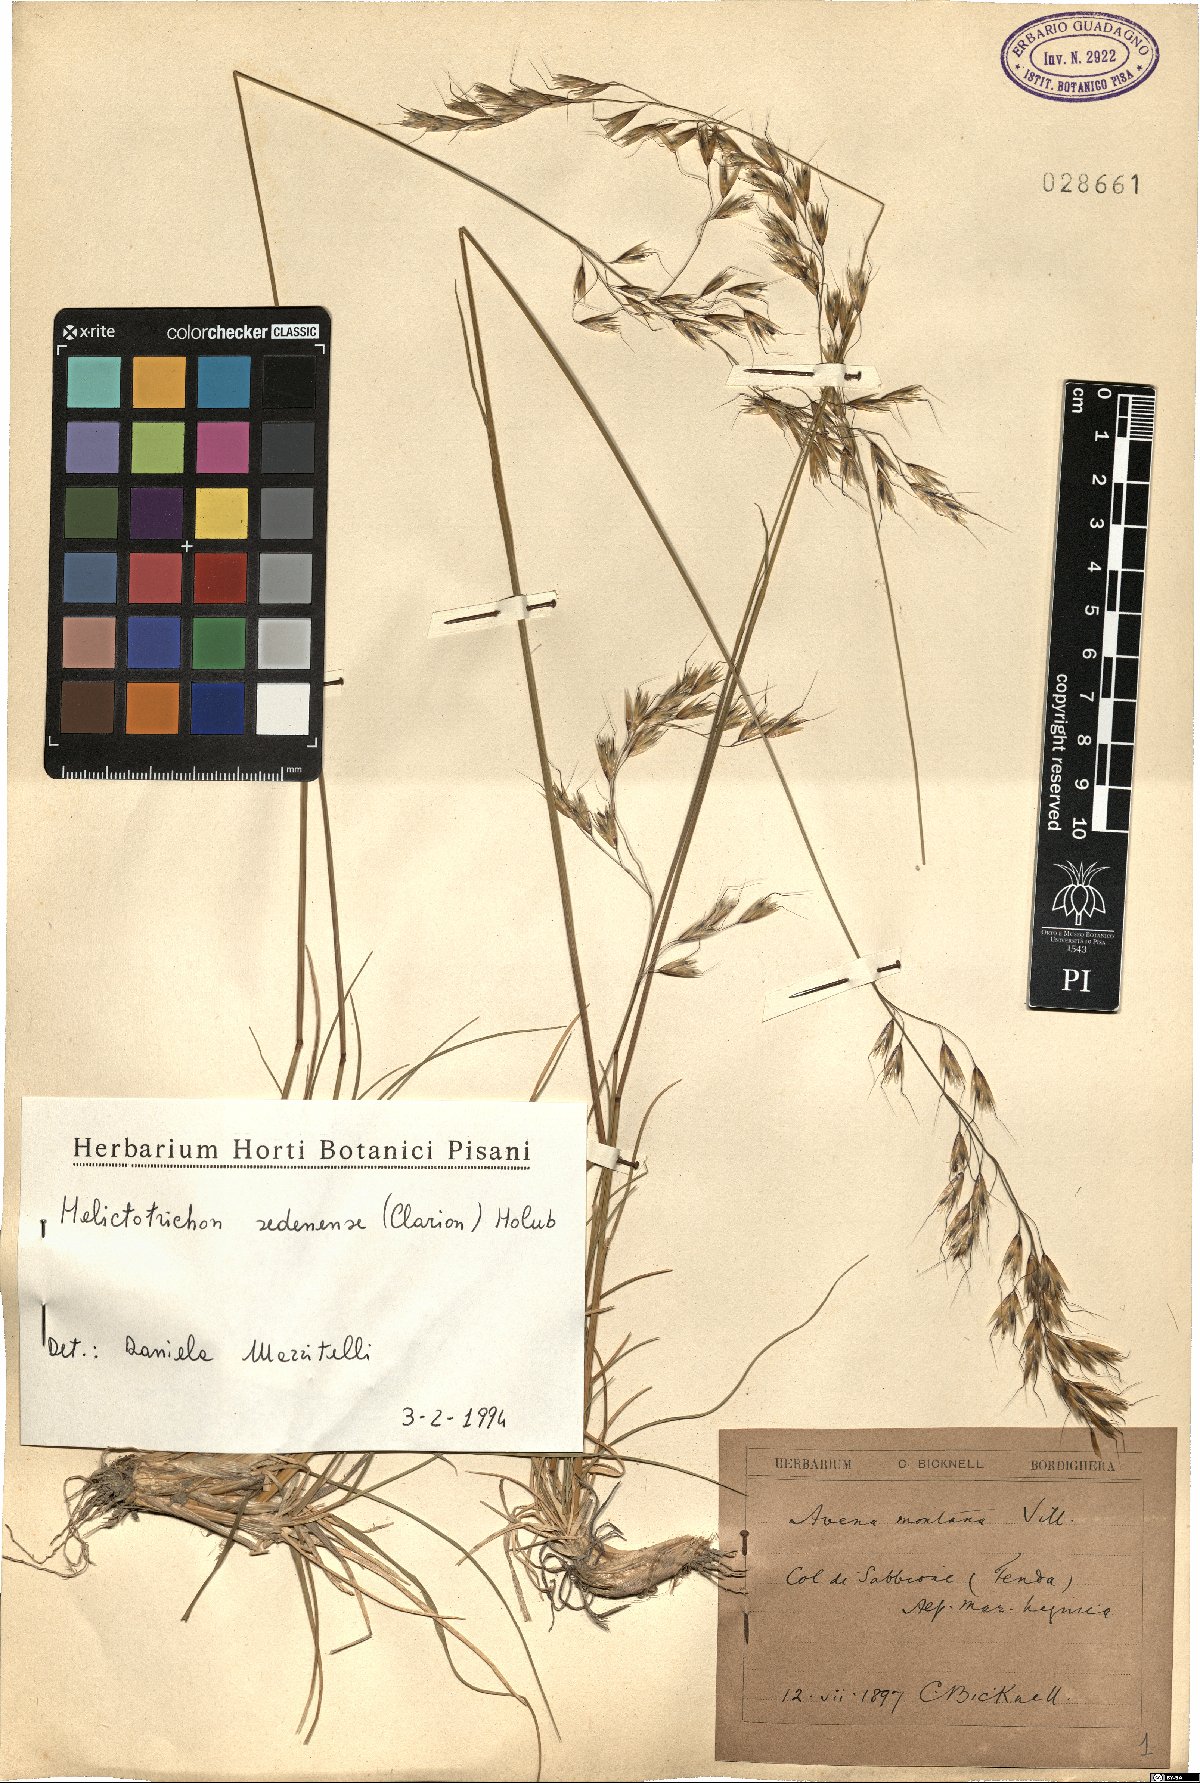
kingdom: Plantae
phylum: Tracheophyta
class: Liliopsida
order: Poales
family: Poaceae
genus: Helictotrichon
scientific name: Helictotrichon sedenense
